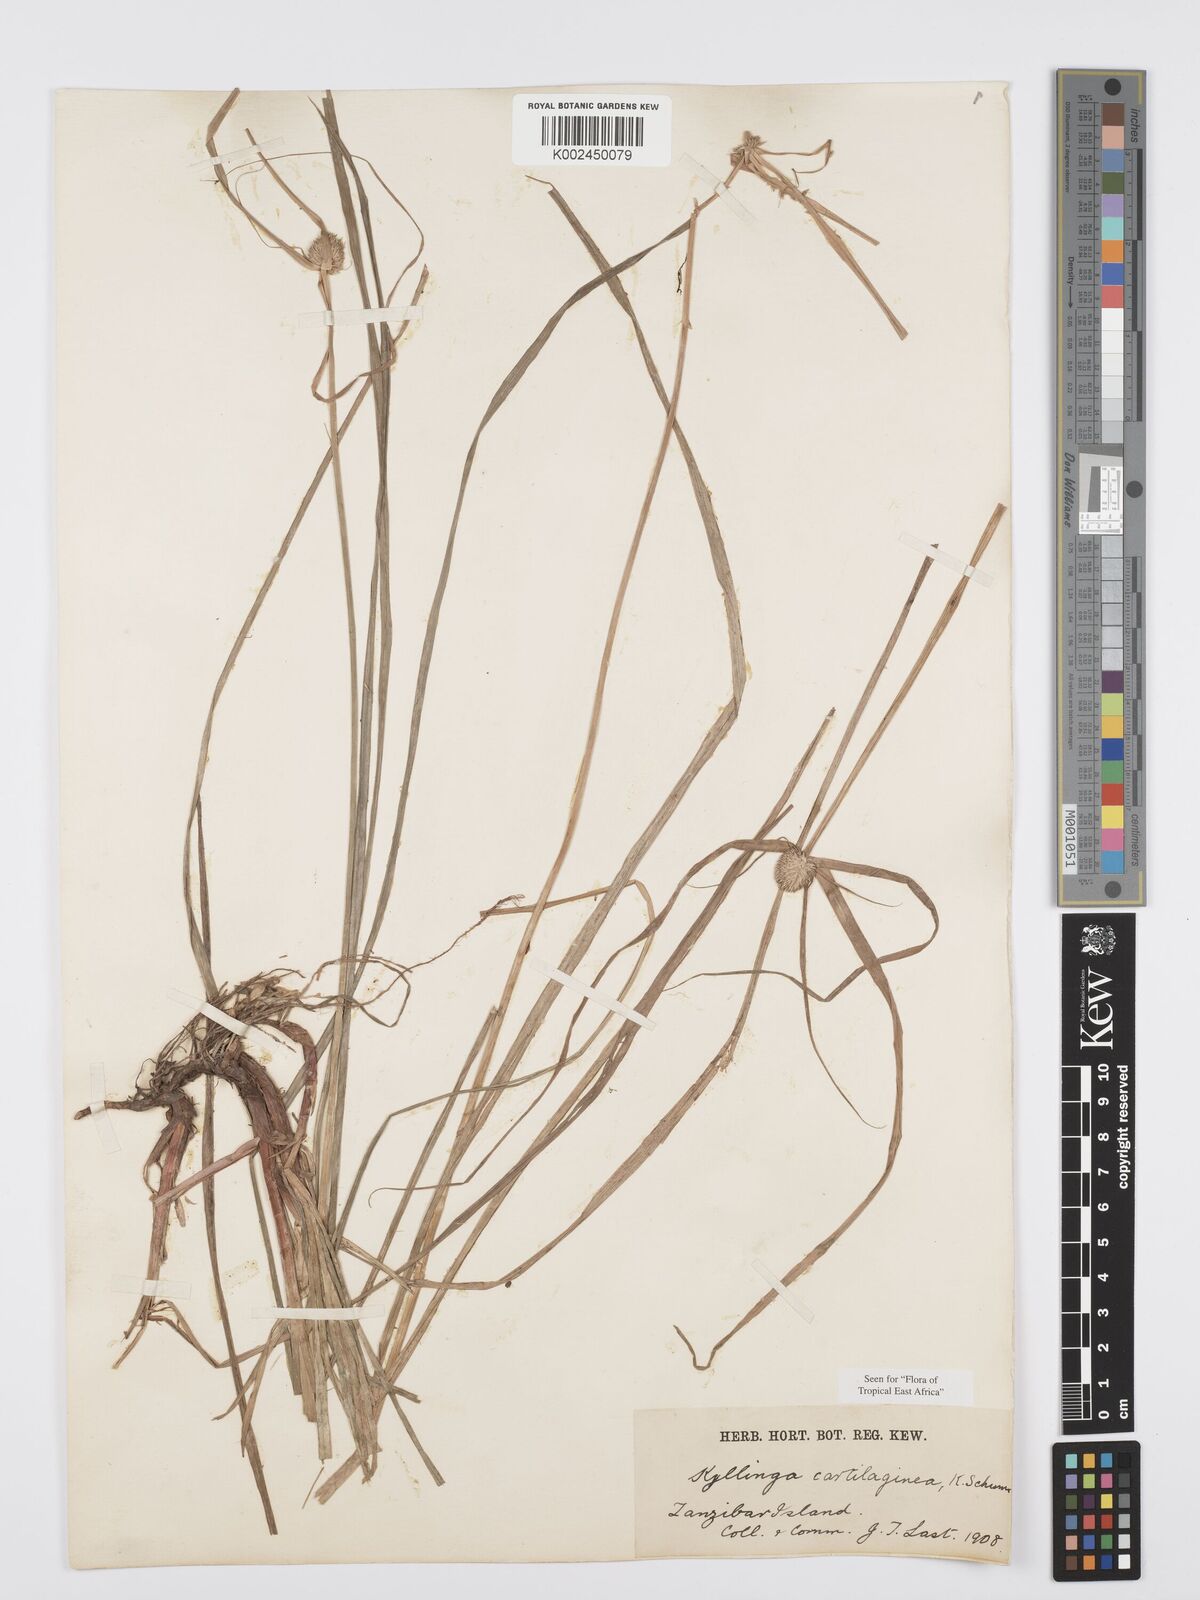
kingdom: Plantae
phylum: Tracheophyta
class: Liliopsida
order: Poales
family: Cyperaceae
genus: Cyperus
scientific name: Cyperus cartilagineus
